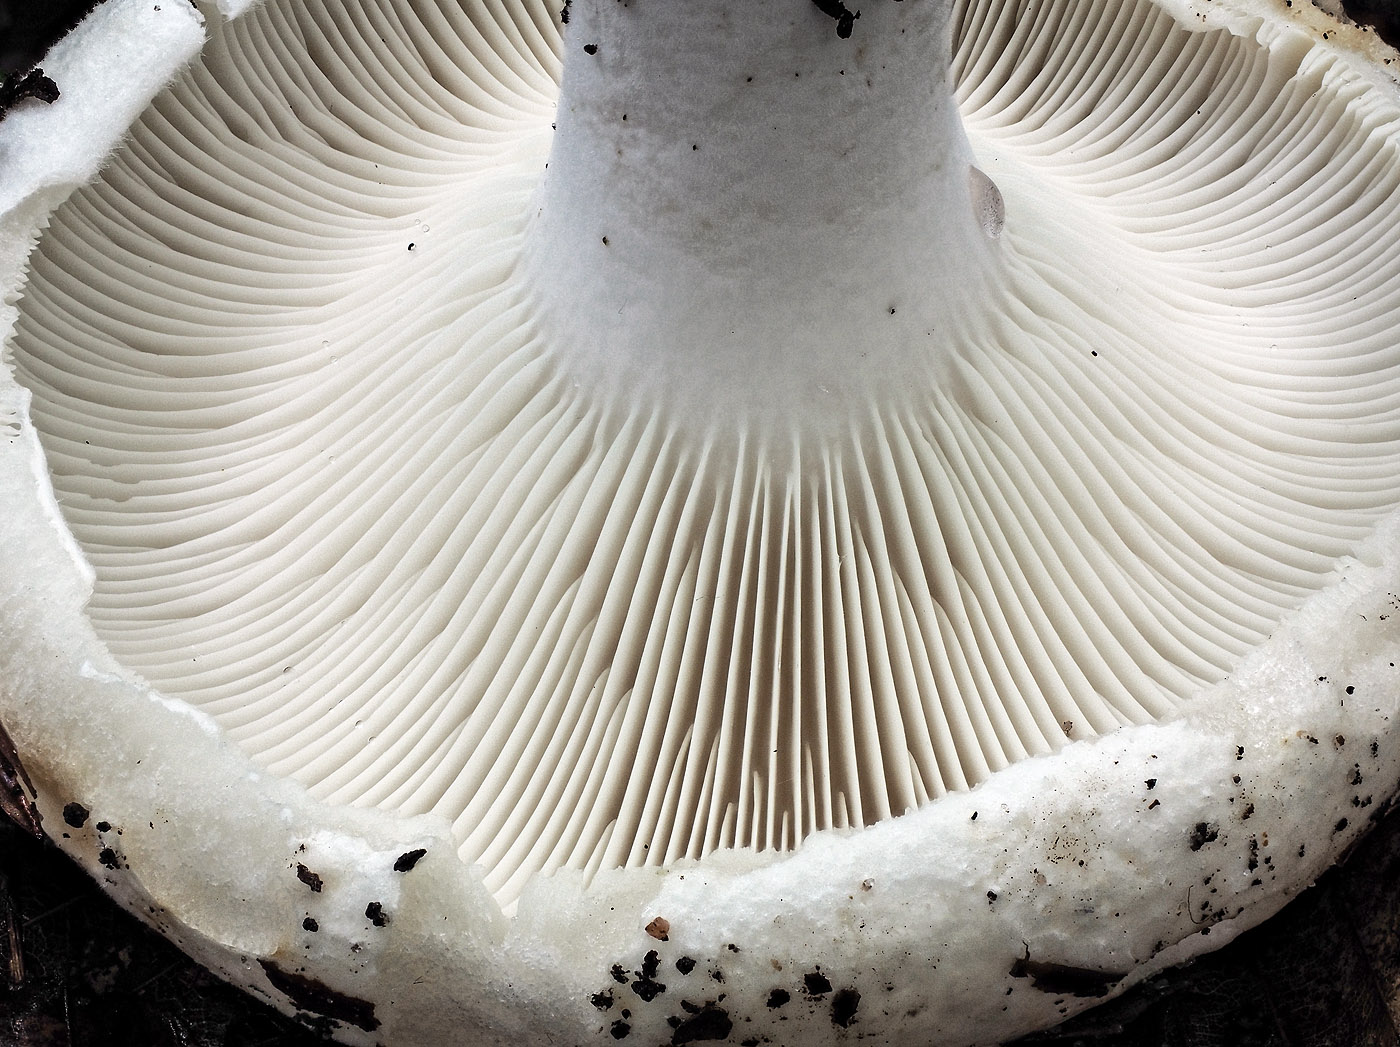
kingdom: Fungi
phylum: Basidiomycota
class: Agaricomycetes
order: Russulales
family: Russulaceae
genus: Russula
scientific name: Russula delica
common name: almindelig tragt-skørhat
